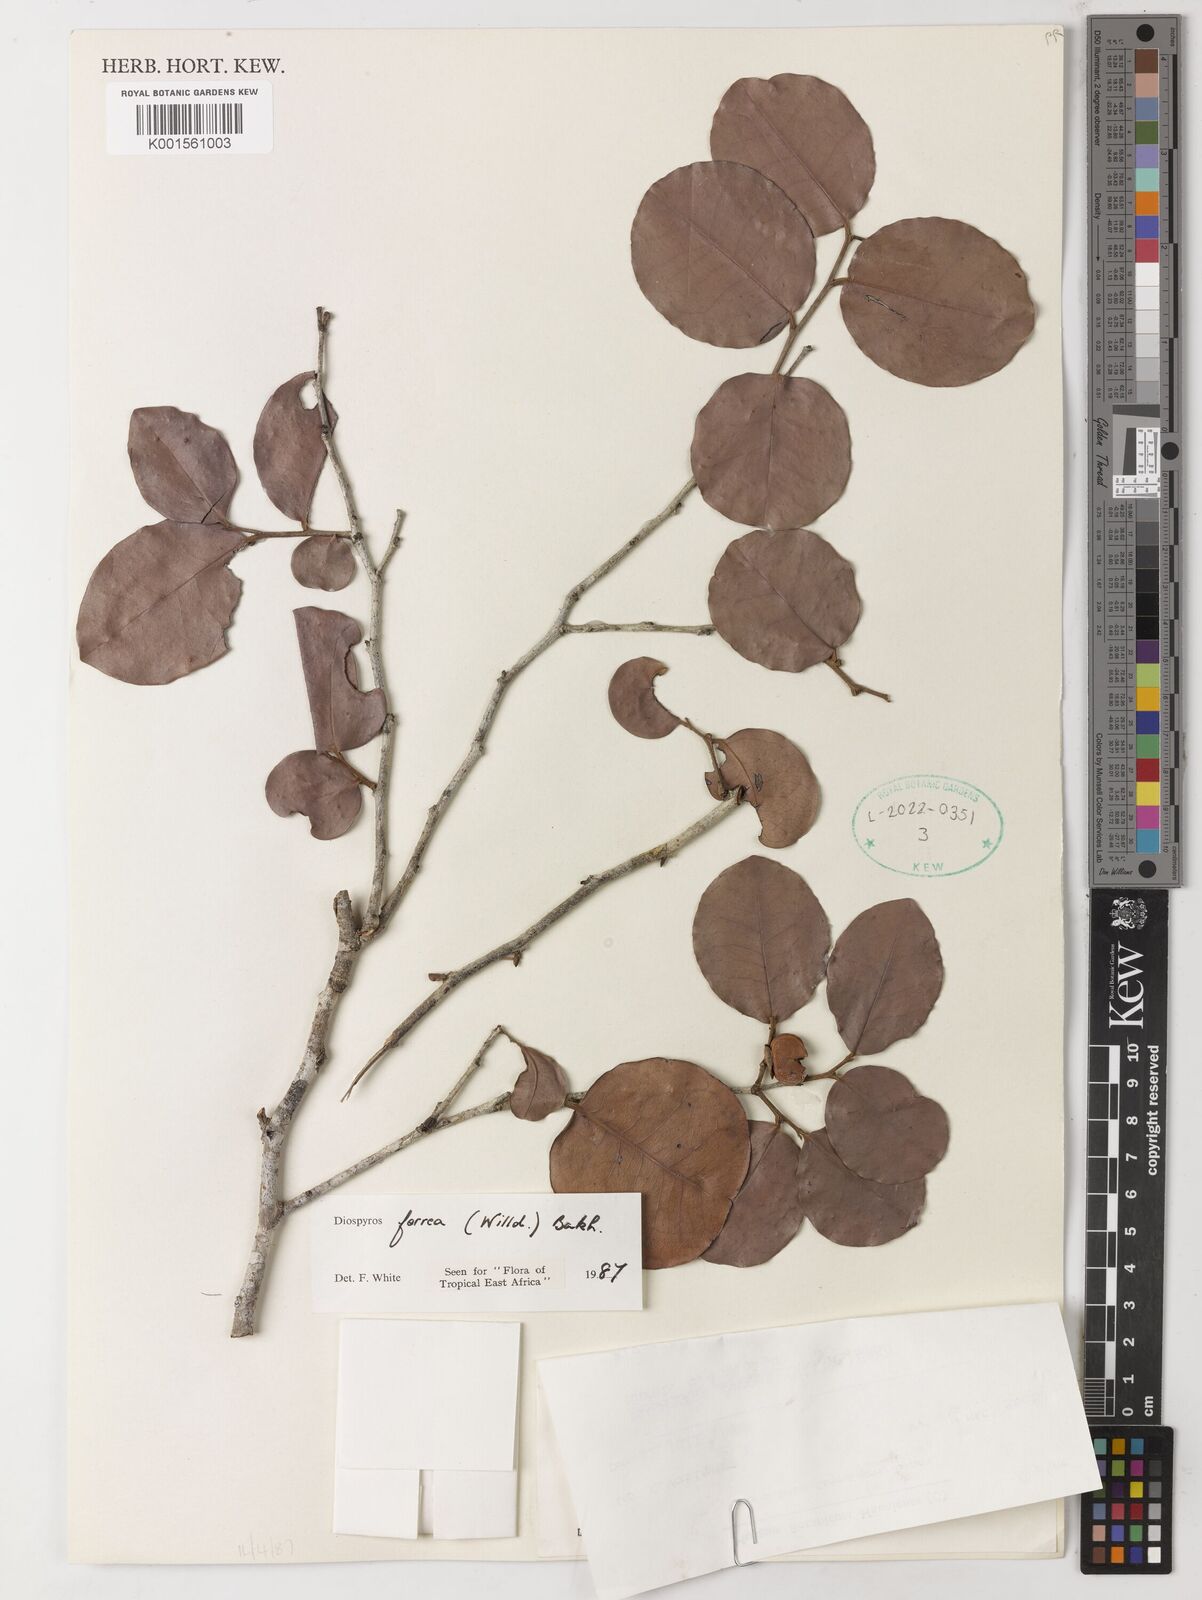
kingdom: Plantae
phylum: Tracheophyta
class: Magnoliopsida
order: Ericales
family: Ebenaceae
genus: Diospyros
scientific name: Diospyros ferrea
